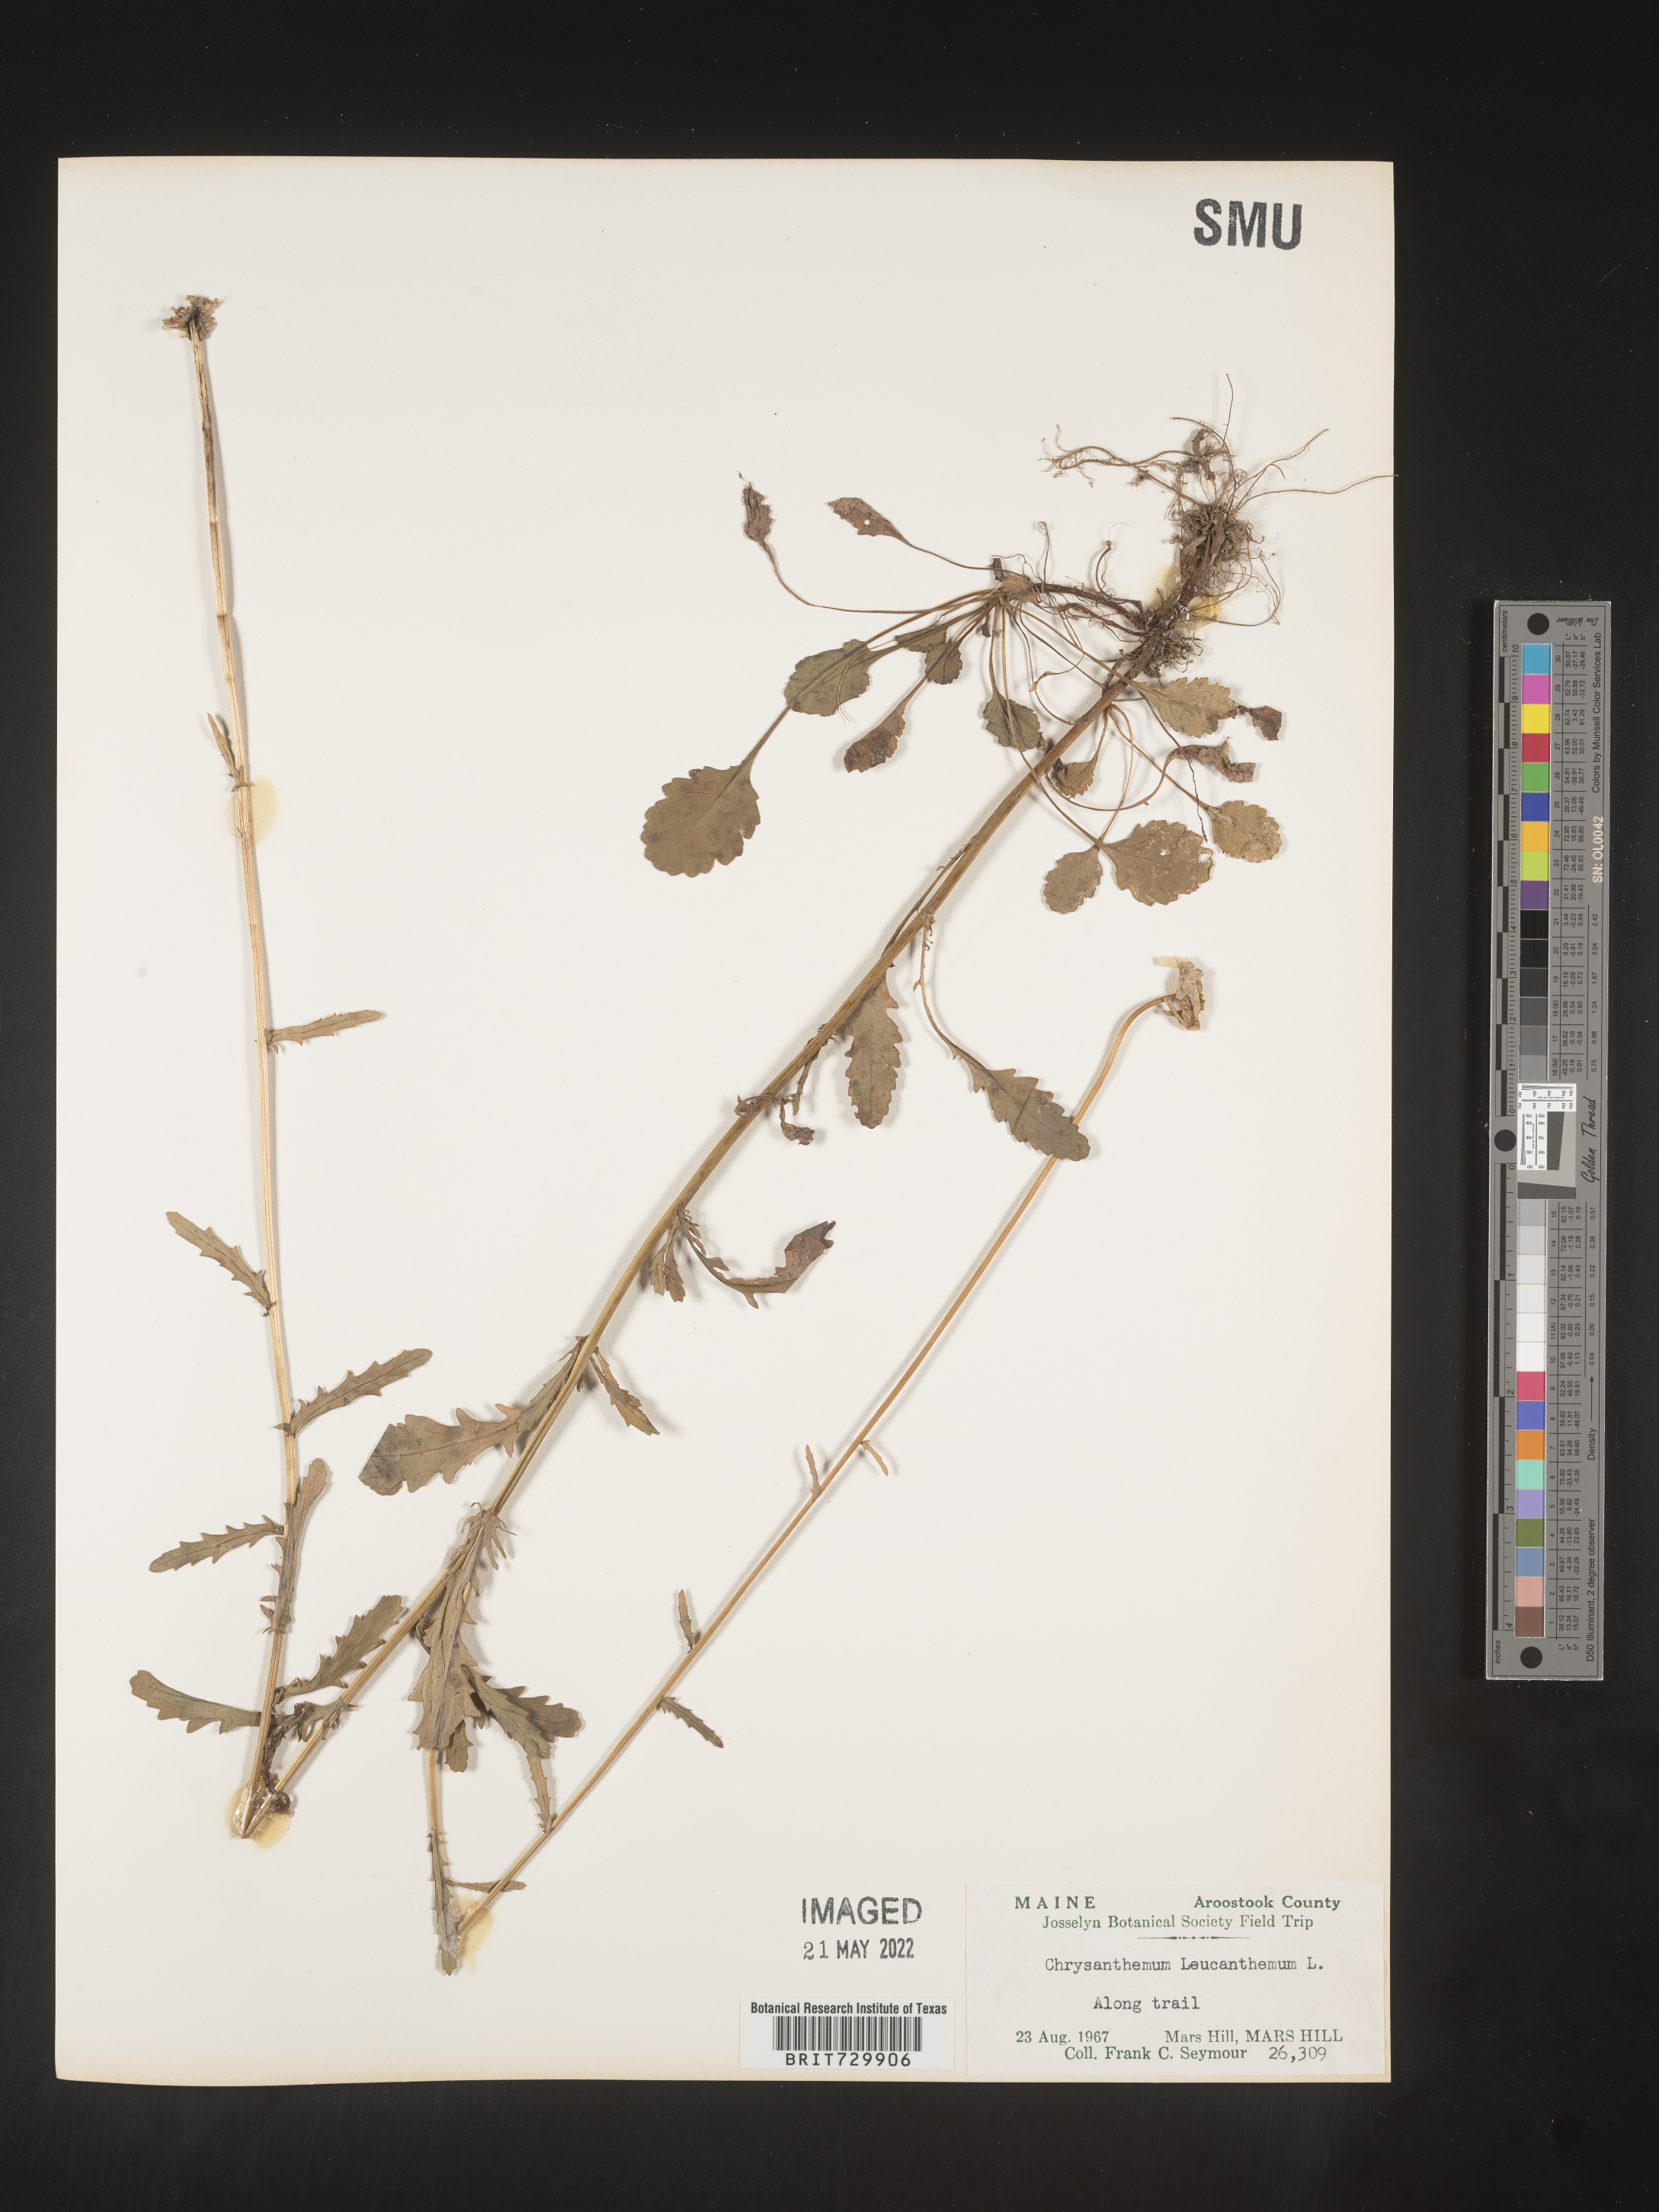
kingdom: Plantae
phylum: Tracheophyta
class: Magnoliopsida
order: Asterales
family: Asteraceae
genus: Leucanthemum
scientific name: Leucanthemum vulgare
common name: Oxeye daisy
